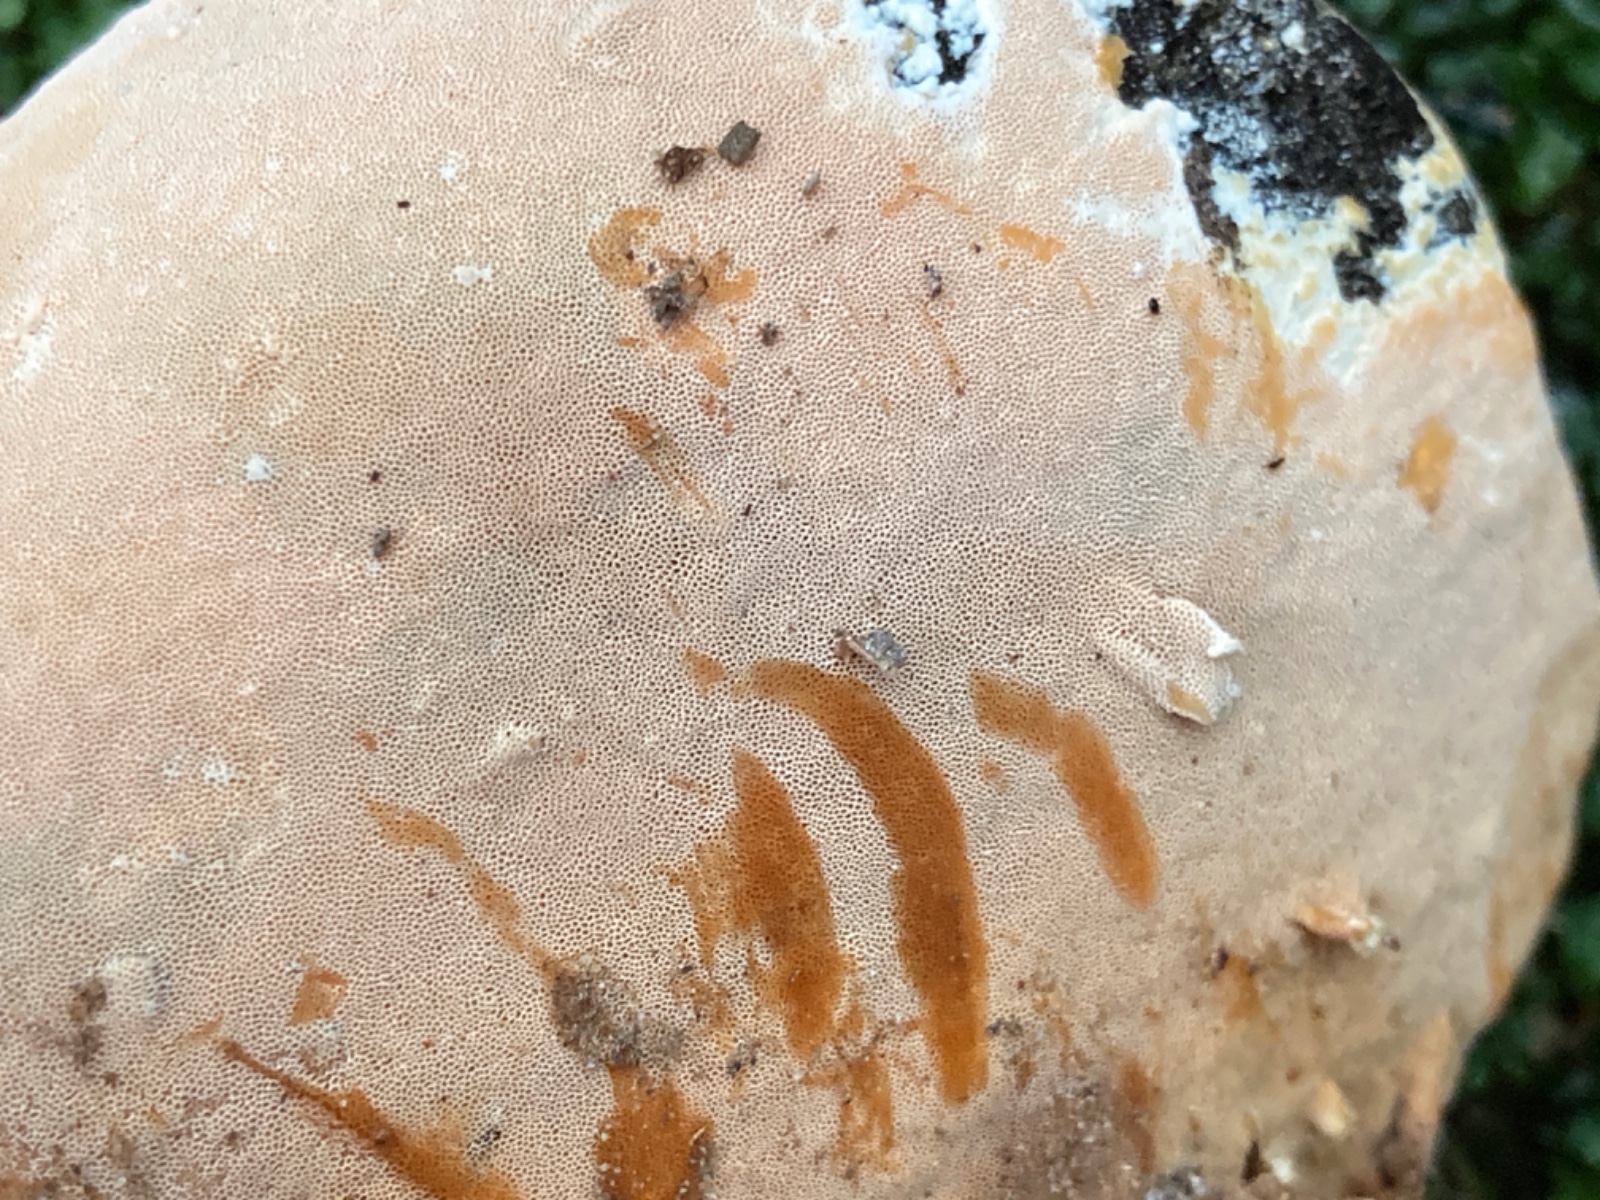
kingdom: Fungi
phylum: Basidiomycota
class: Agaricomycetes
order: Polyporales
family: Steccherinaceae
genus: Junghuhnia
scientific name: Junghuhnia nitida
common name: almindelig skønporesvamp
